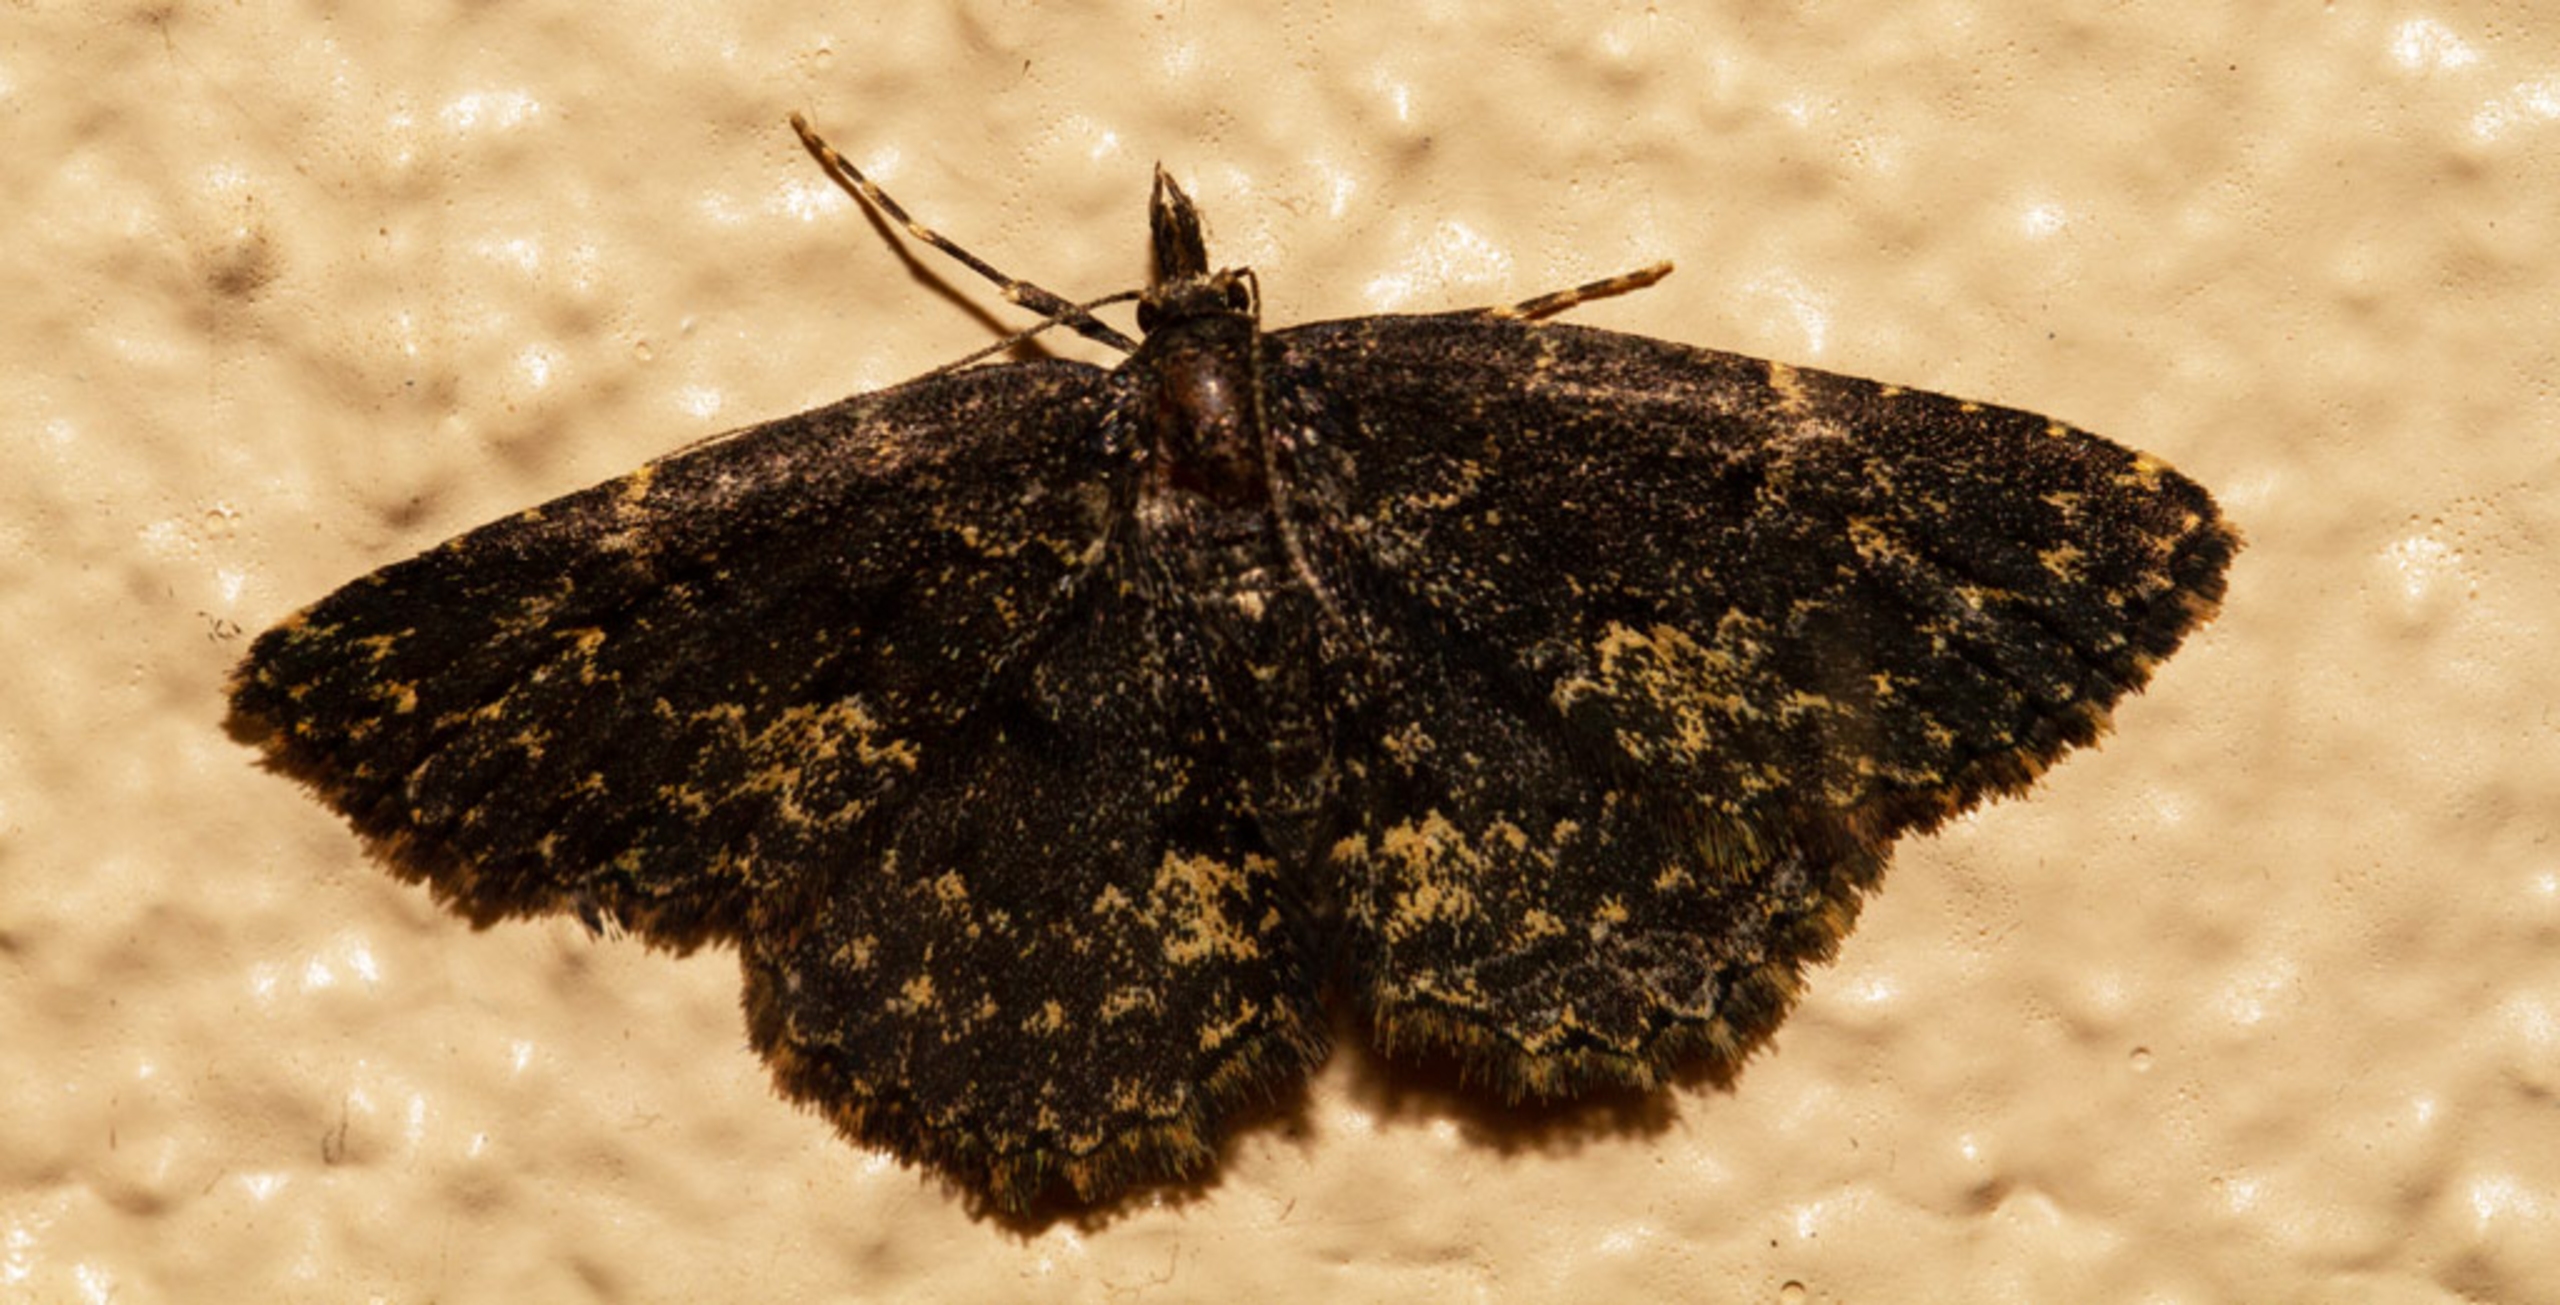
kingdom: Animalia
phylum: Arthropoda
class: Insecta
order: Lepidoptera
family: Erebidae
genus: Parascotia
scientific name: Parascotia fuliginaria
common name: Svampeugle
